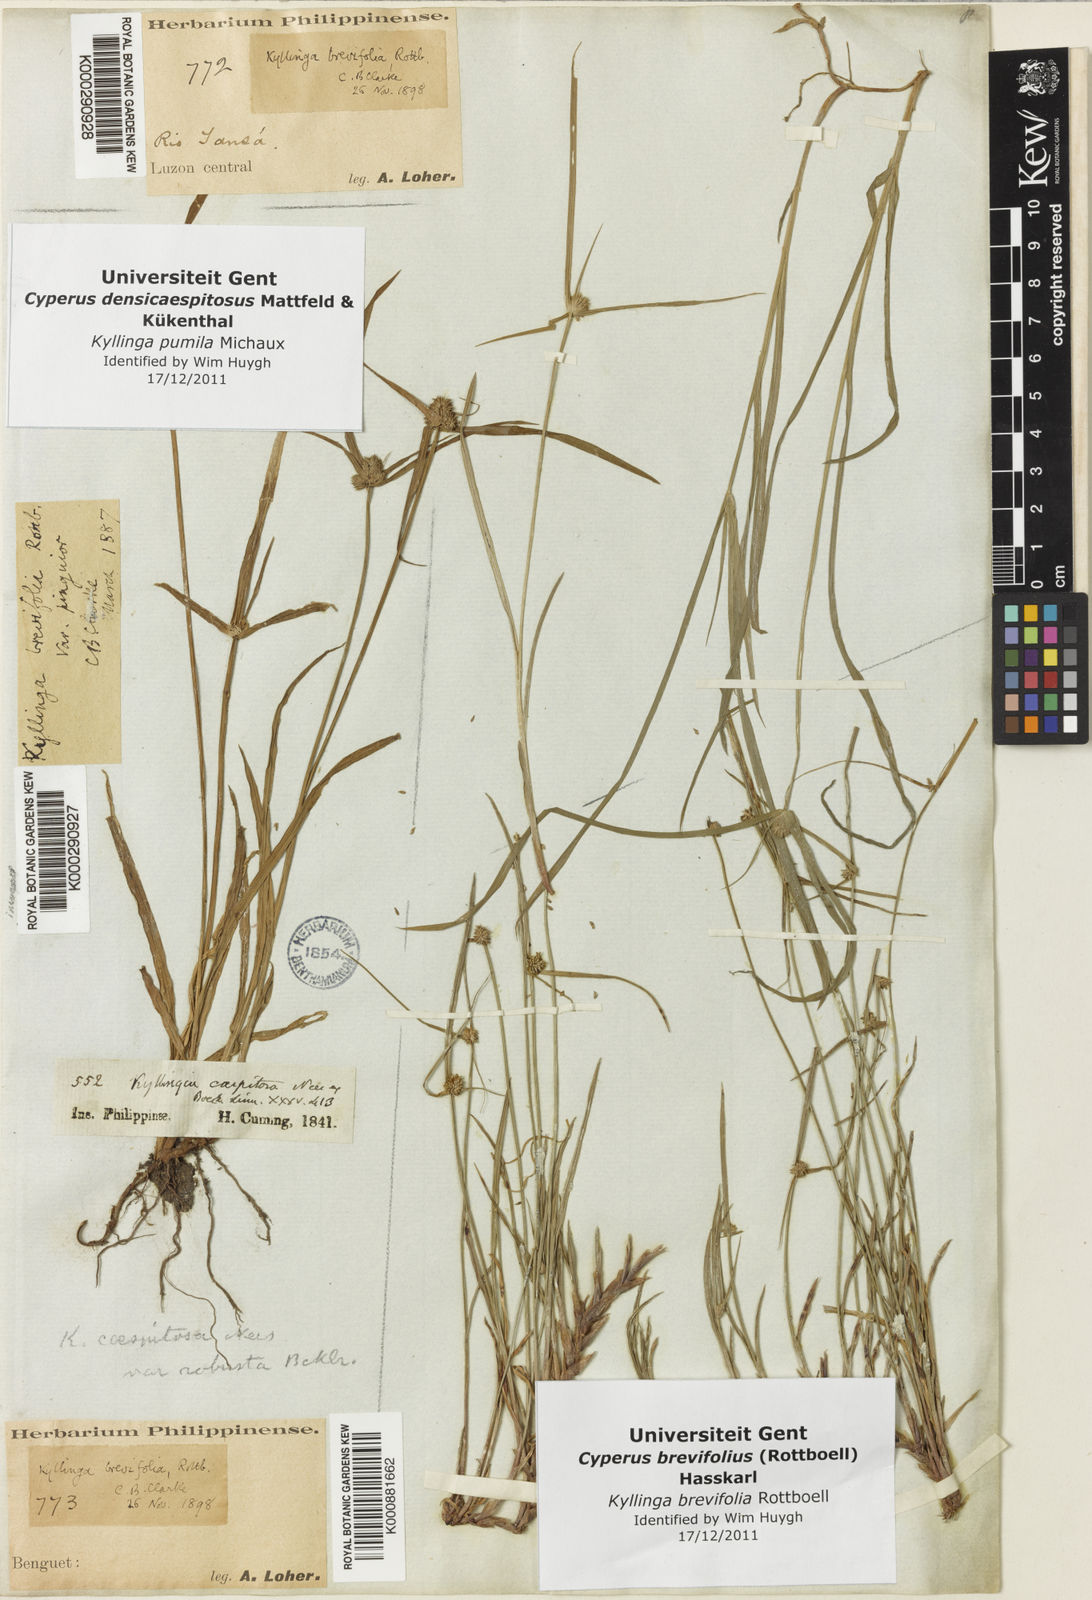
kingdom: Plantae
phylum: Tracheophyta
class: Liliopsida
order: Poales
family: Cyperaceae
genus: Cyperus
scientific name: Cyperus brevifolius
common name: Globe kyllinga
